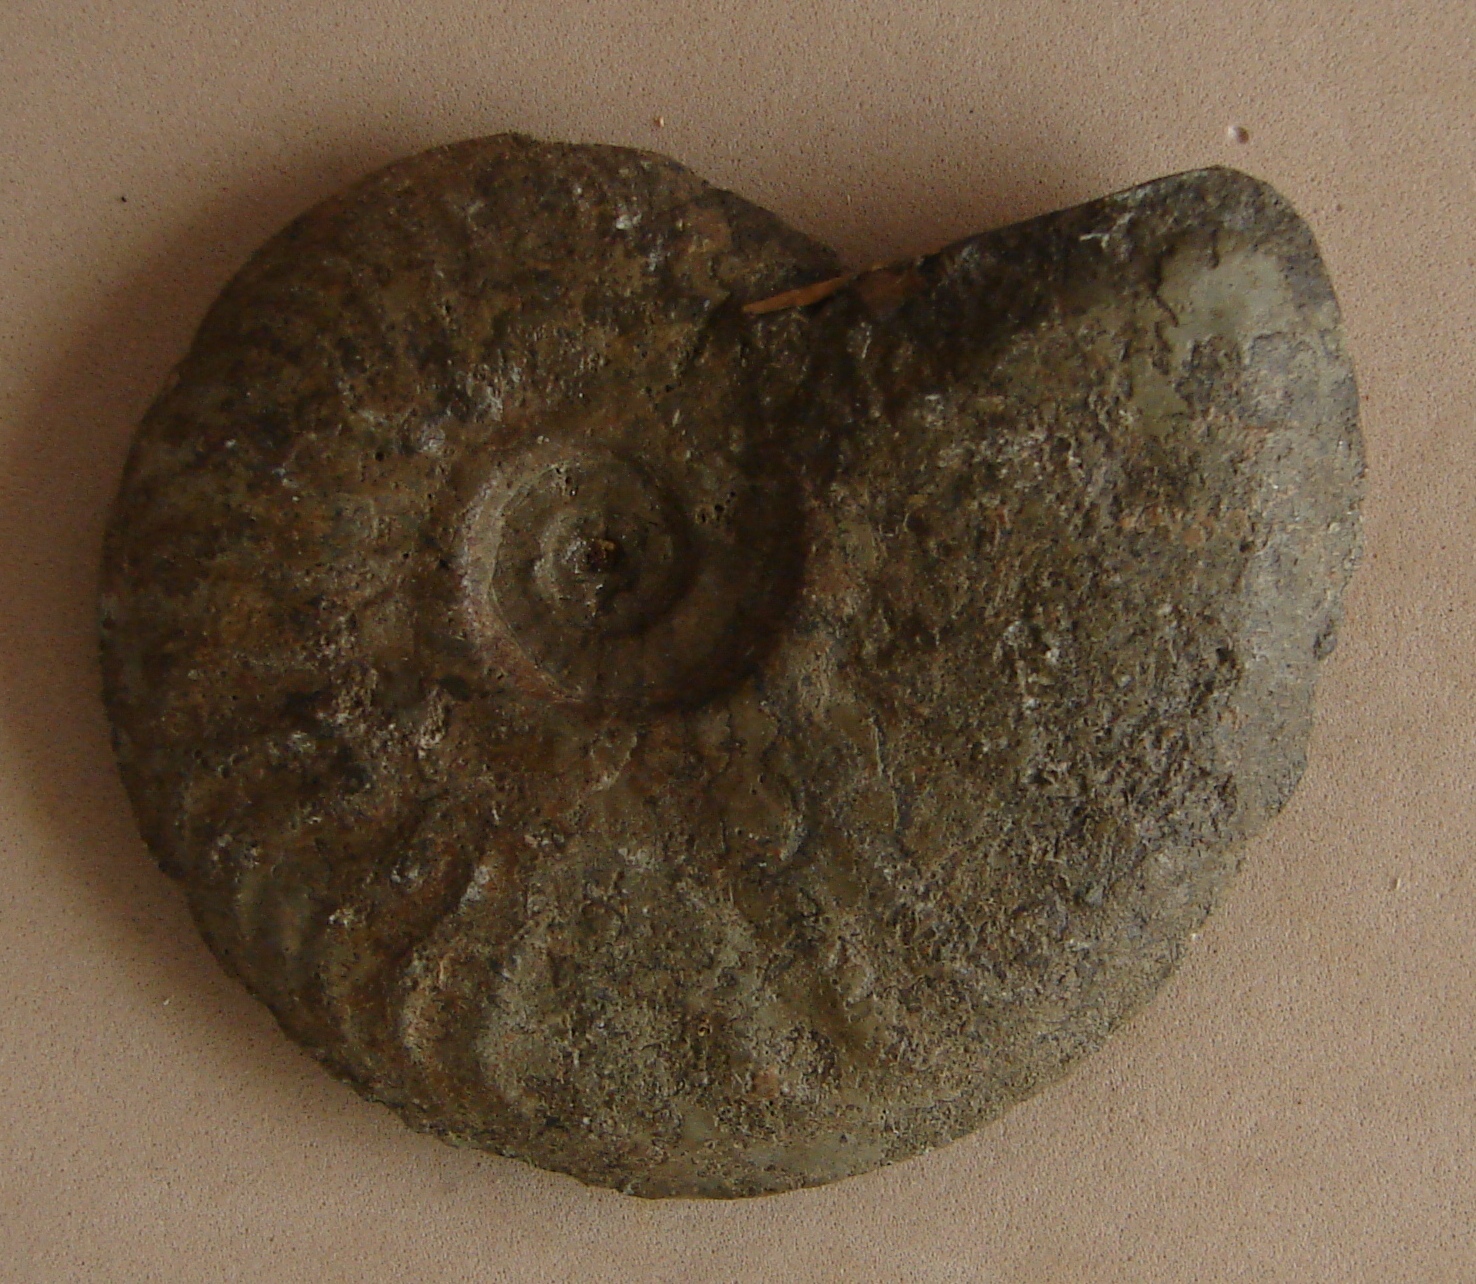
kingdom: Animalia
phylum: Mollusca
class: Cephalopoda
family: Hildoceratidae
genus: Pleydellia
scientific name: Pleydellia aalensis
